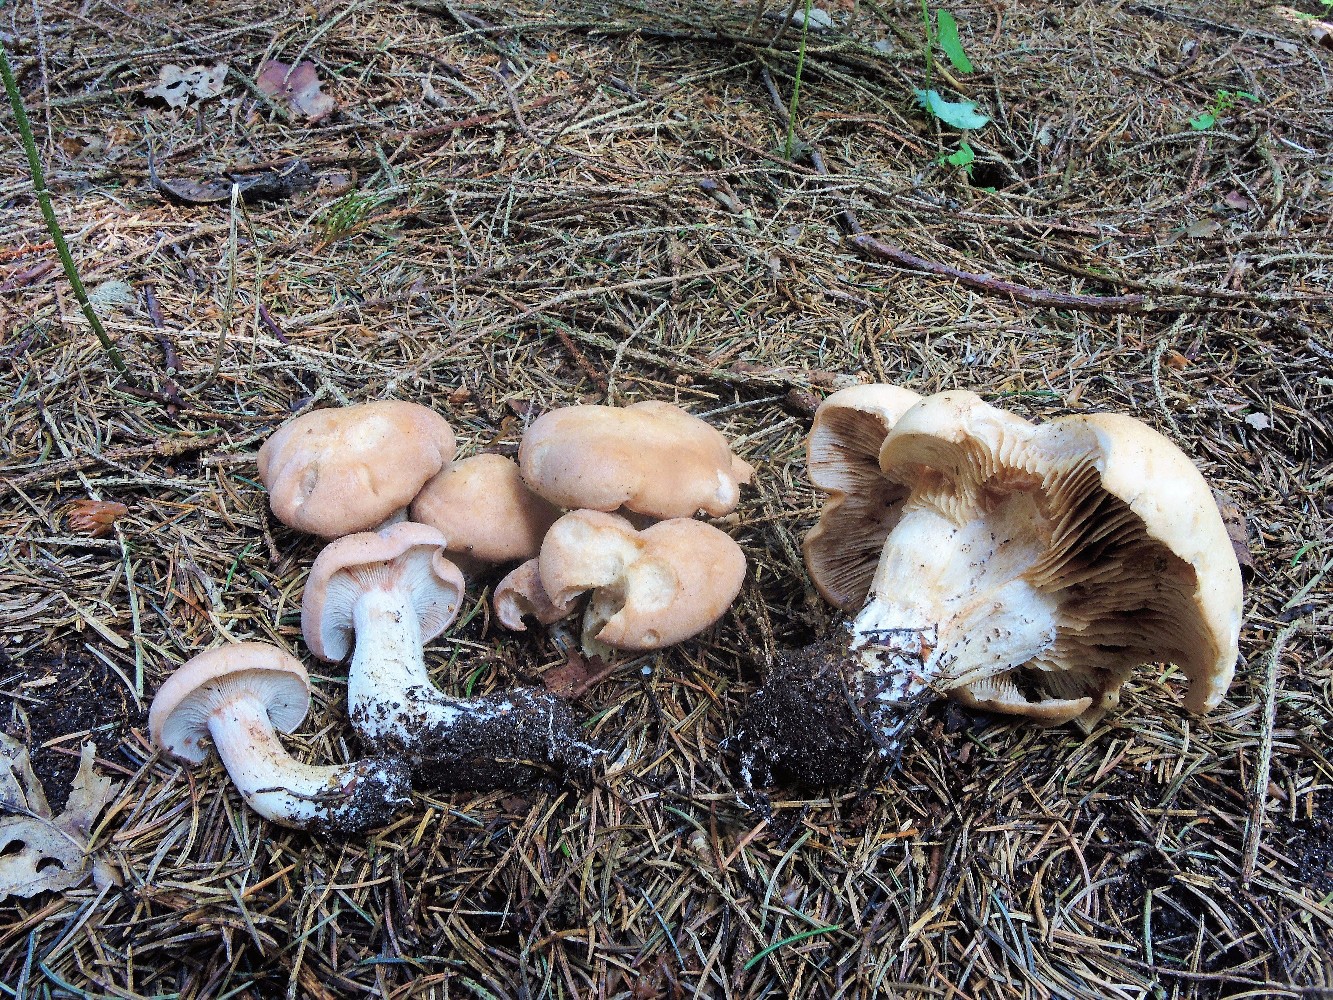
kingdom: Fungi
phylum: Basidiomycota
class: Agaricomycetes
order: Agaricales
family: Entolomataceae
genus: Clitopilus
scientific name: Clitopilus geminus
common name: kødfarvet troldhat
